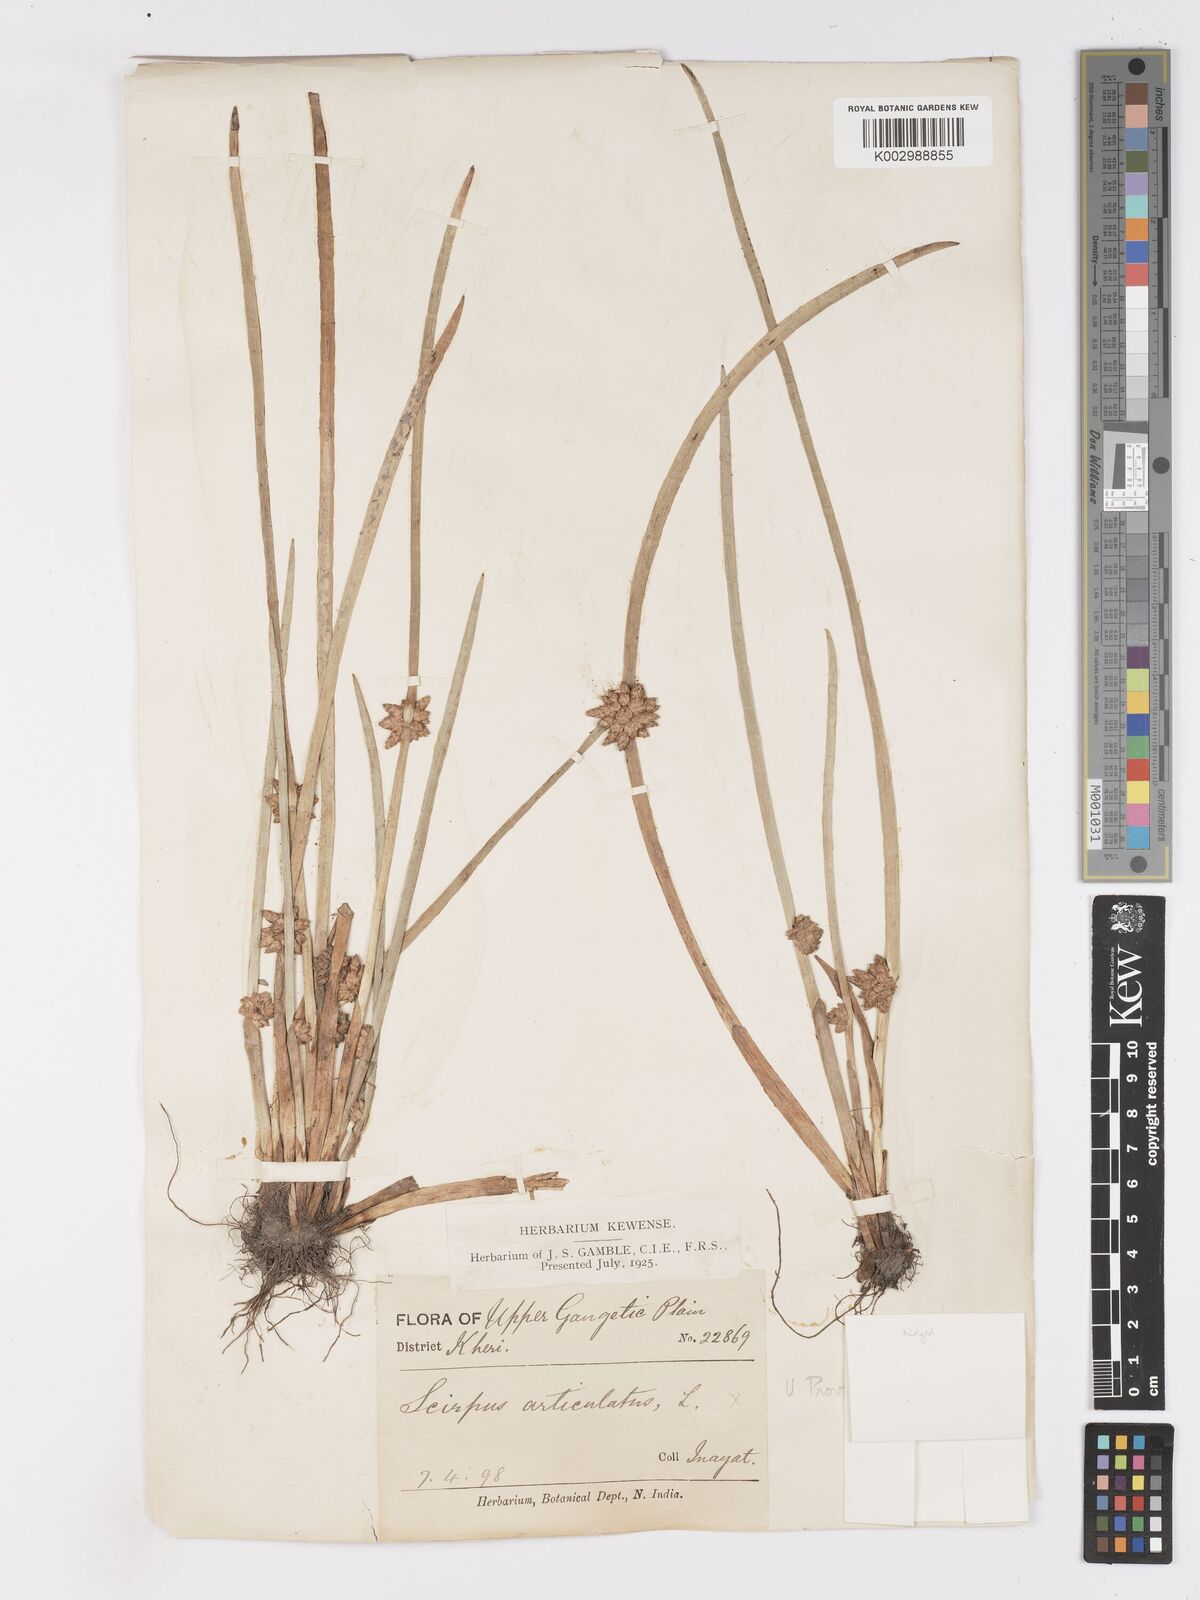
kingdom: Plantae
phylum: Tracheophyta
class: Liliopsida
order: Poales
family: Cyperaceae
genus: Schoenoplectiella
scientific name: Schoenoplectiella praelongata
